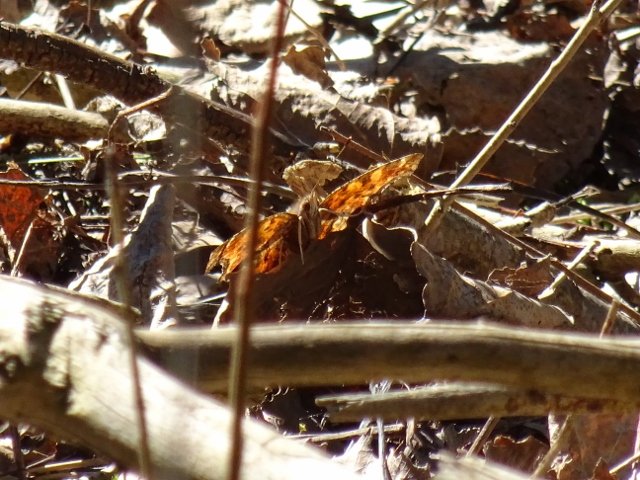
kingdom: Animalia
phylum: Arthropoda
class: Insecta
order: Lepidoptera
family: Nymphalidae
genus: Polygonia
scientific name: Polygonia
